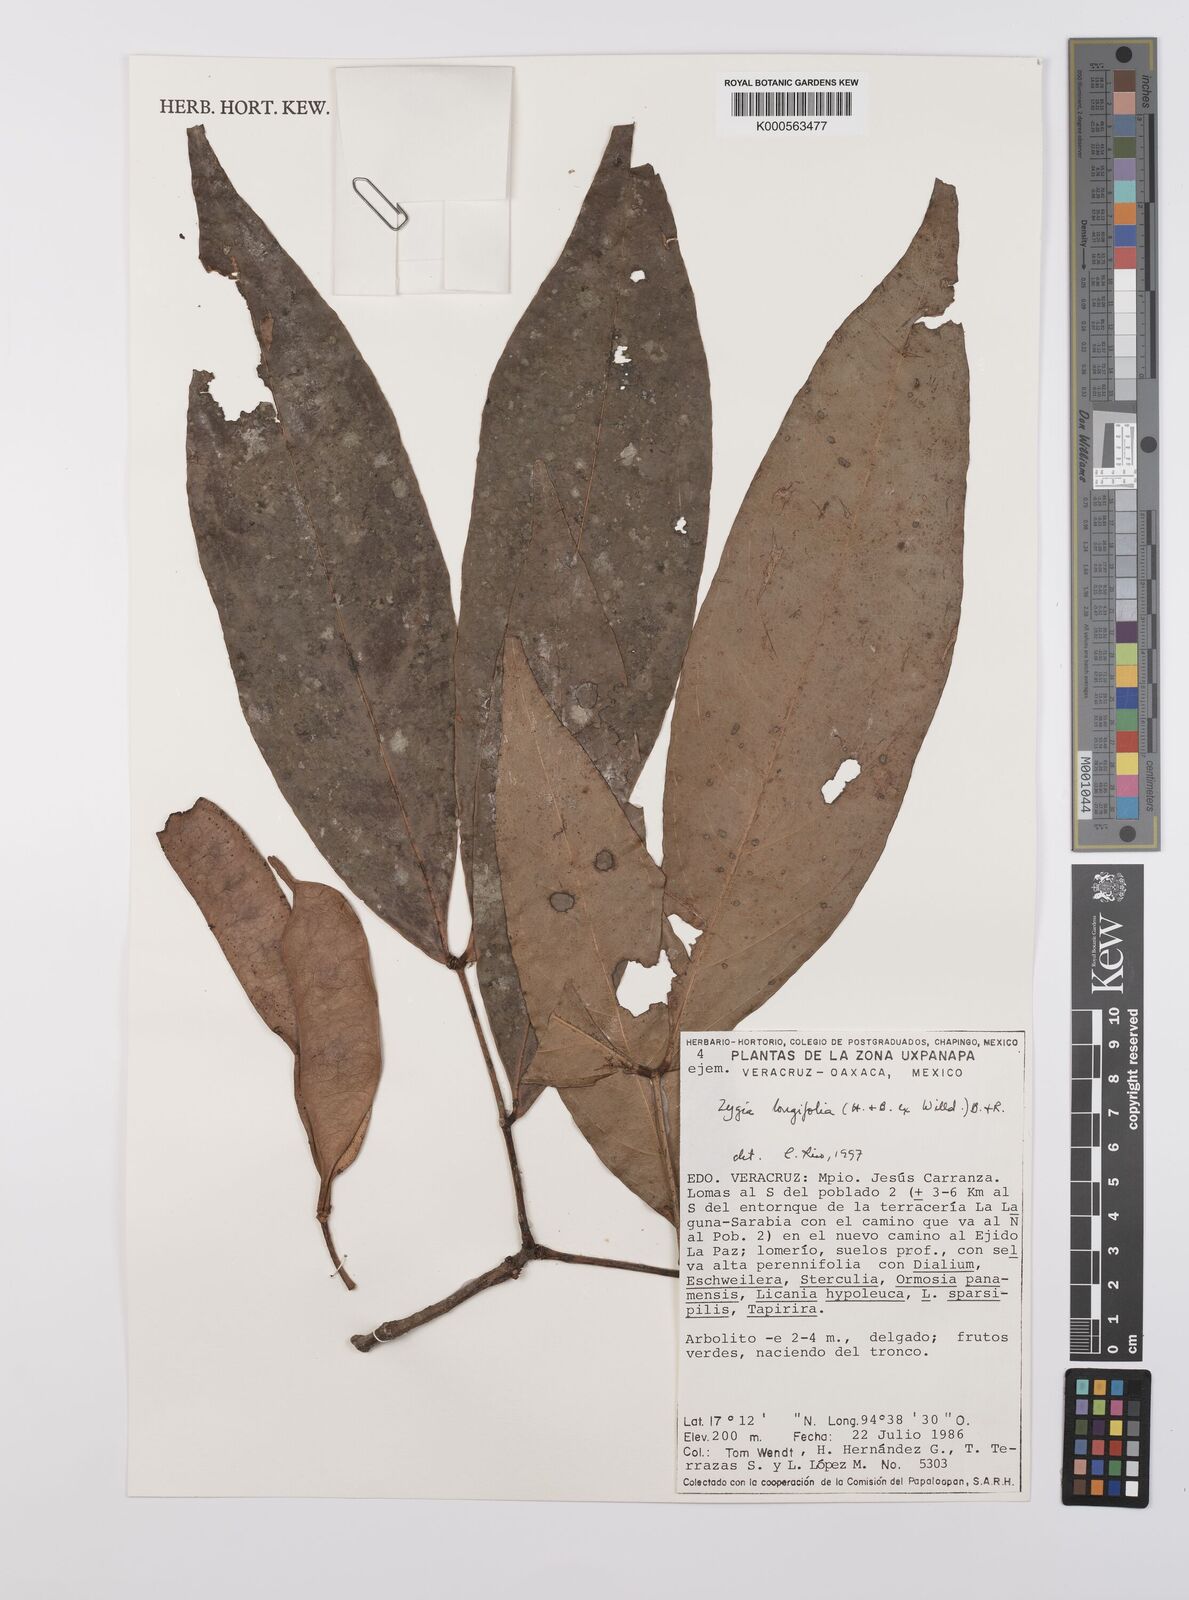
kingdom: Plantae
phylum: Tracheophyta
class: Magnoliopsida
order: Fabales
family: Fabaceae
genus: Zygia
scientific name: Zygia longifolia
